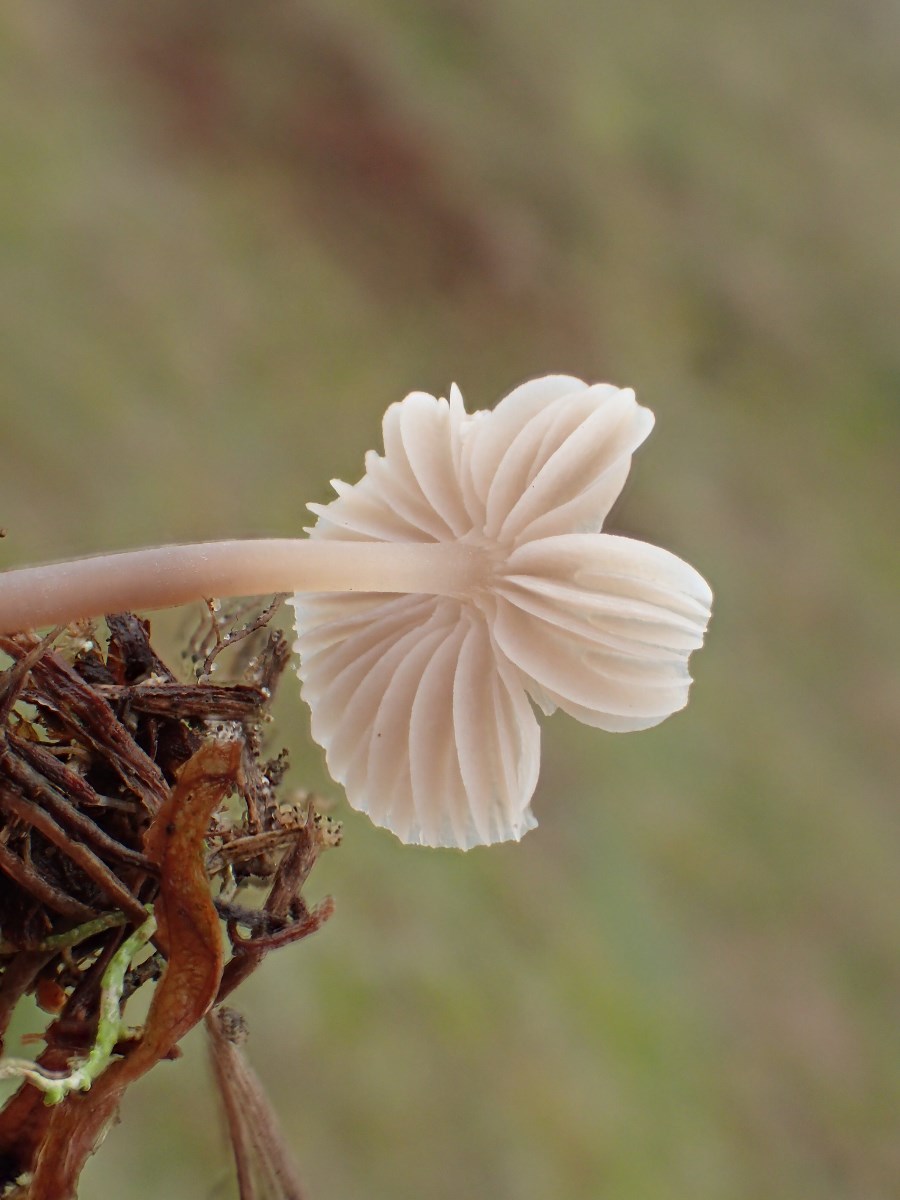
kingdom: Fungi
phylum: Basidiomycota
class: Agaricomycetes
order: Agaricales
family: Mycenaceae
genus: Mycena
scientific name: Mycena leptocephala
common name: klor-huesvamp
